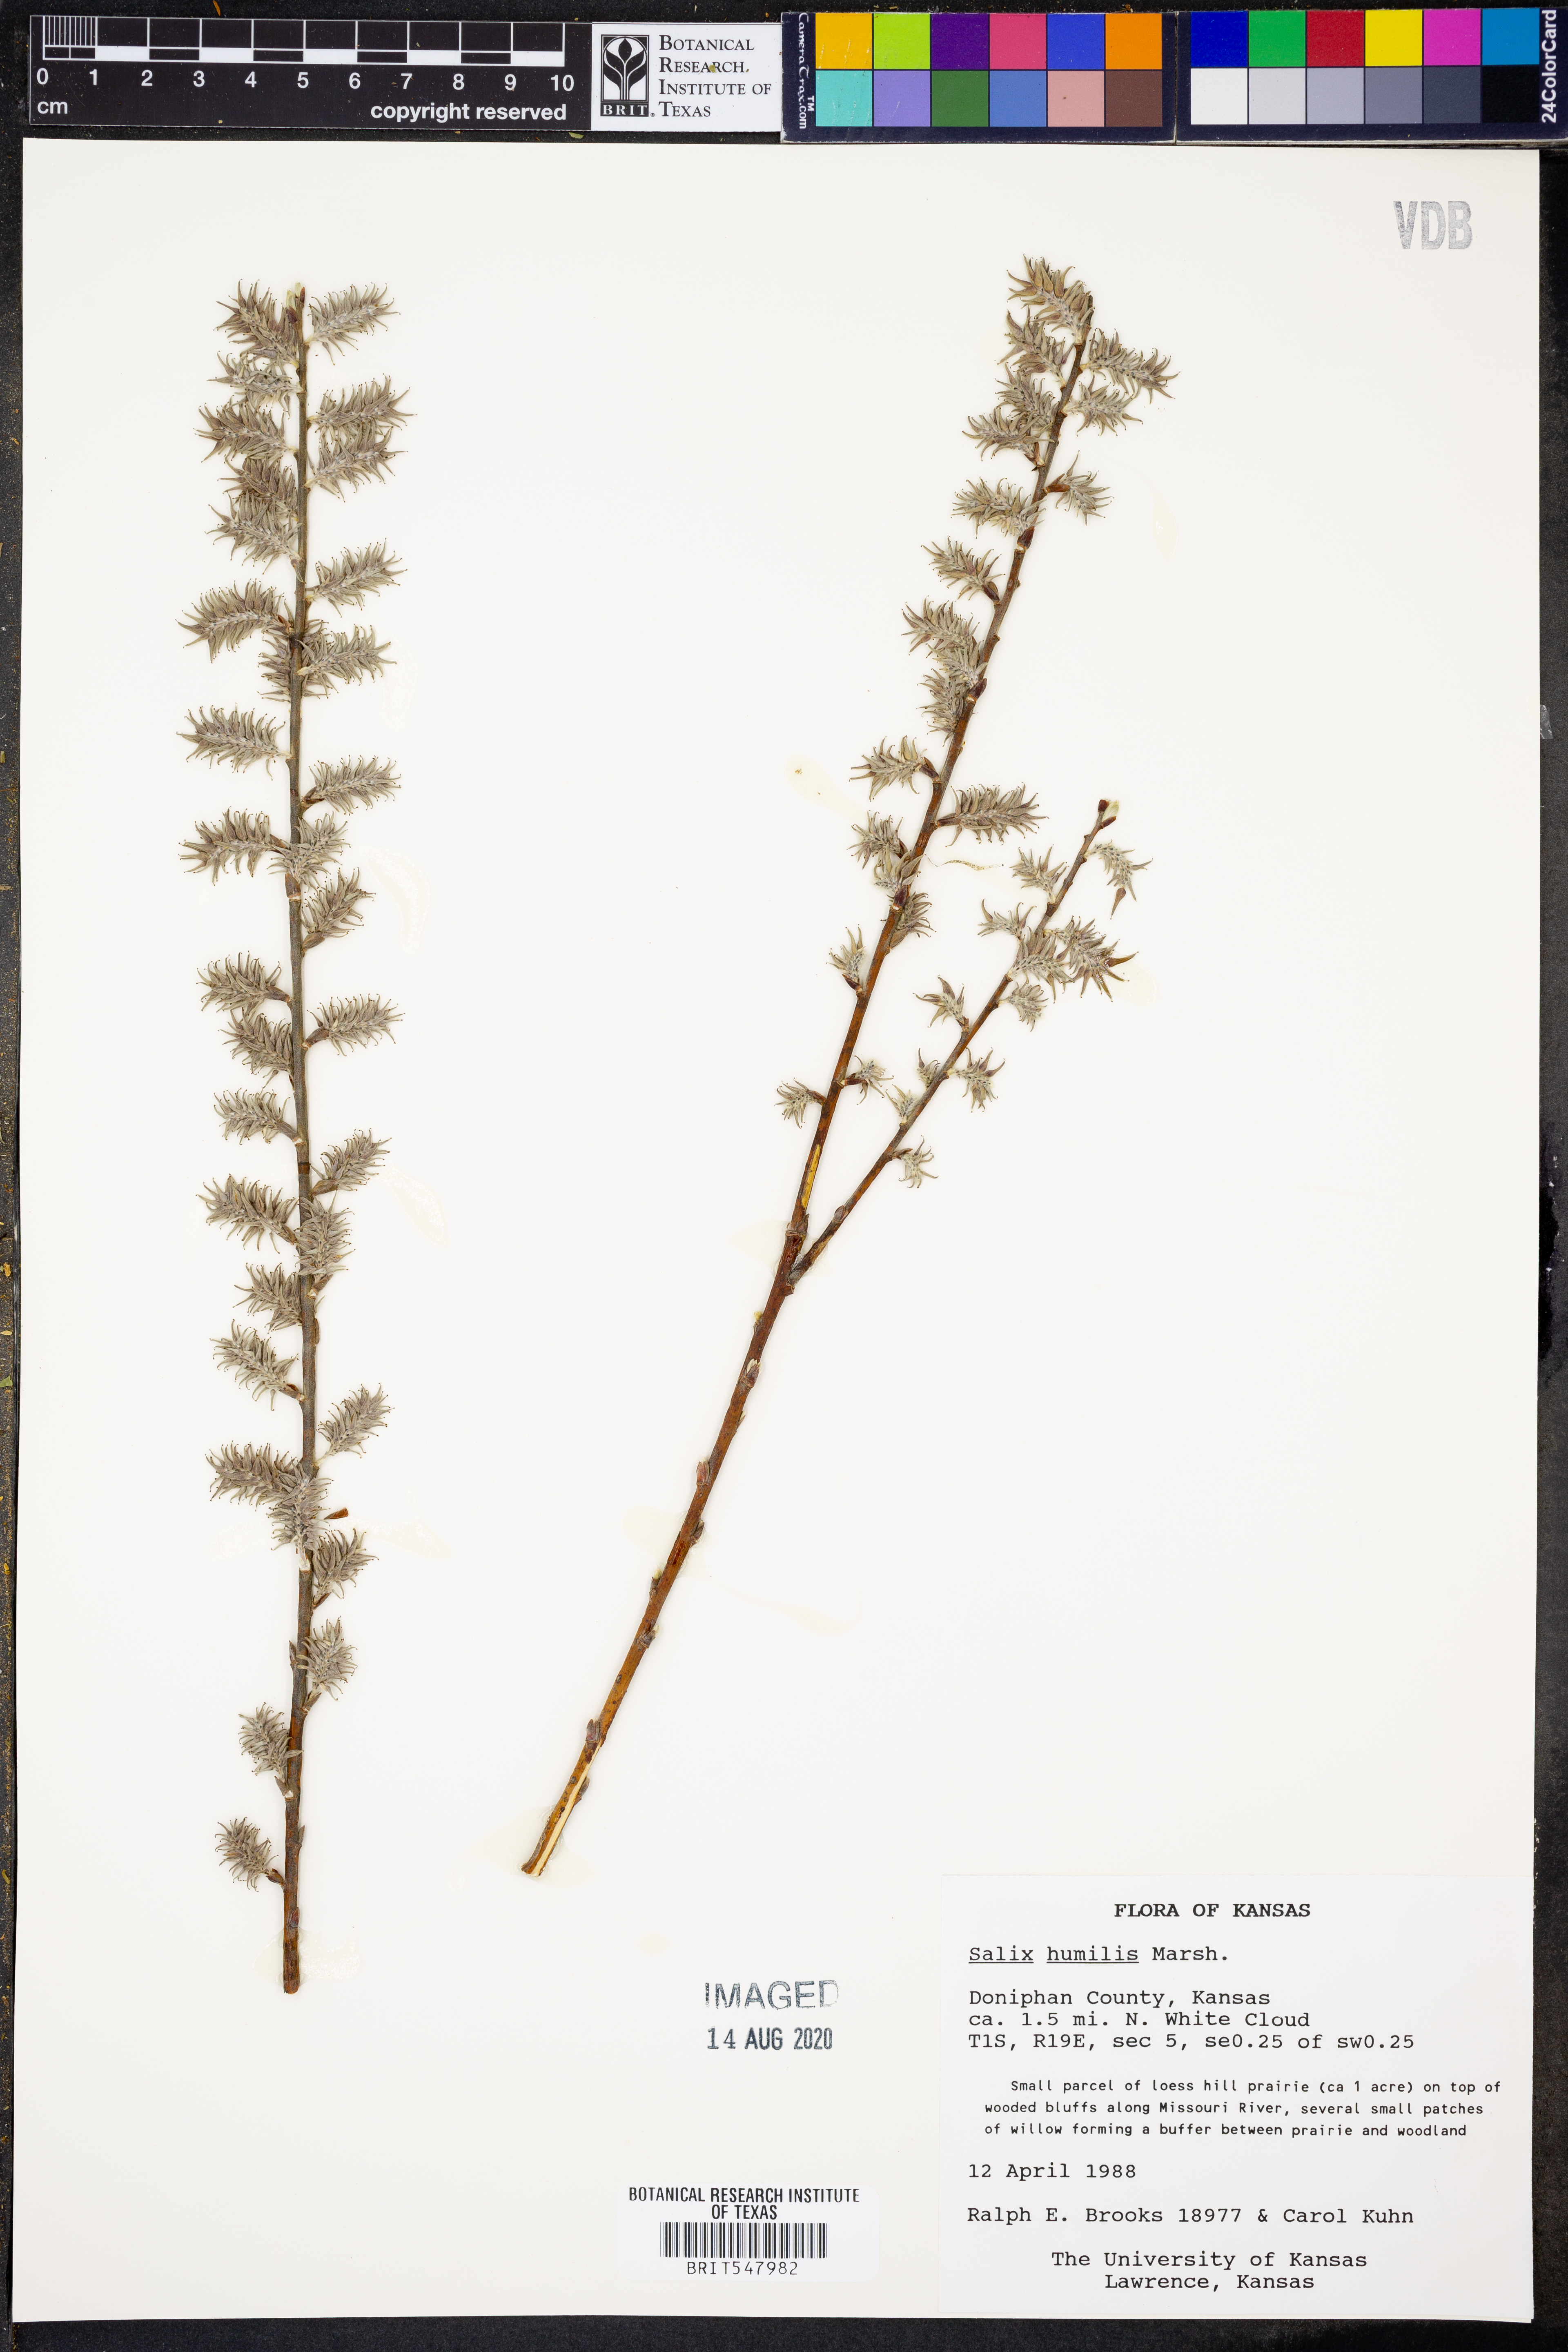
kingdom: Plantae
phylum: Tracheophyta
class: Magnoliopsida
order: Malpighiales
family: Salicaceae
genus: Salix
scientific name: Salix humilis
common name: Prairie willow
